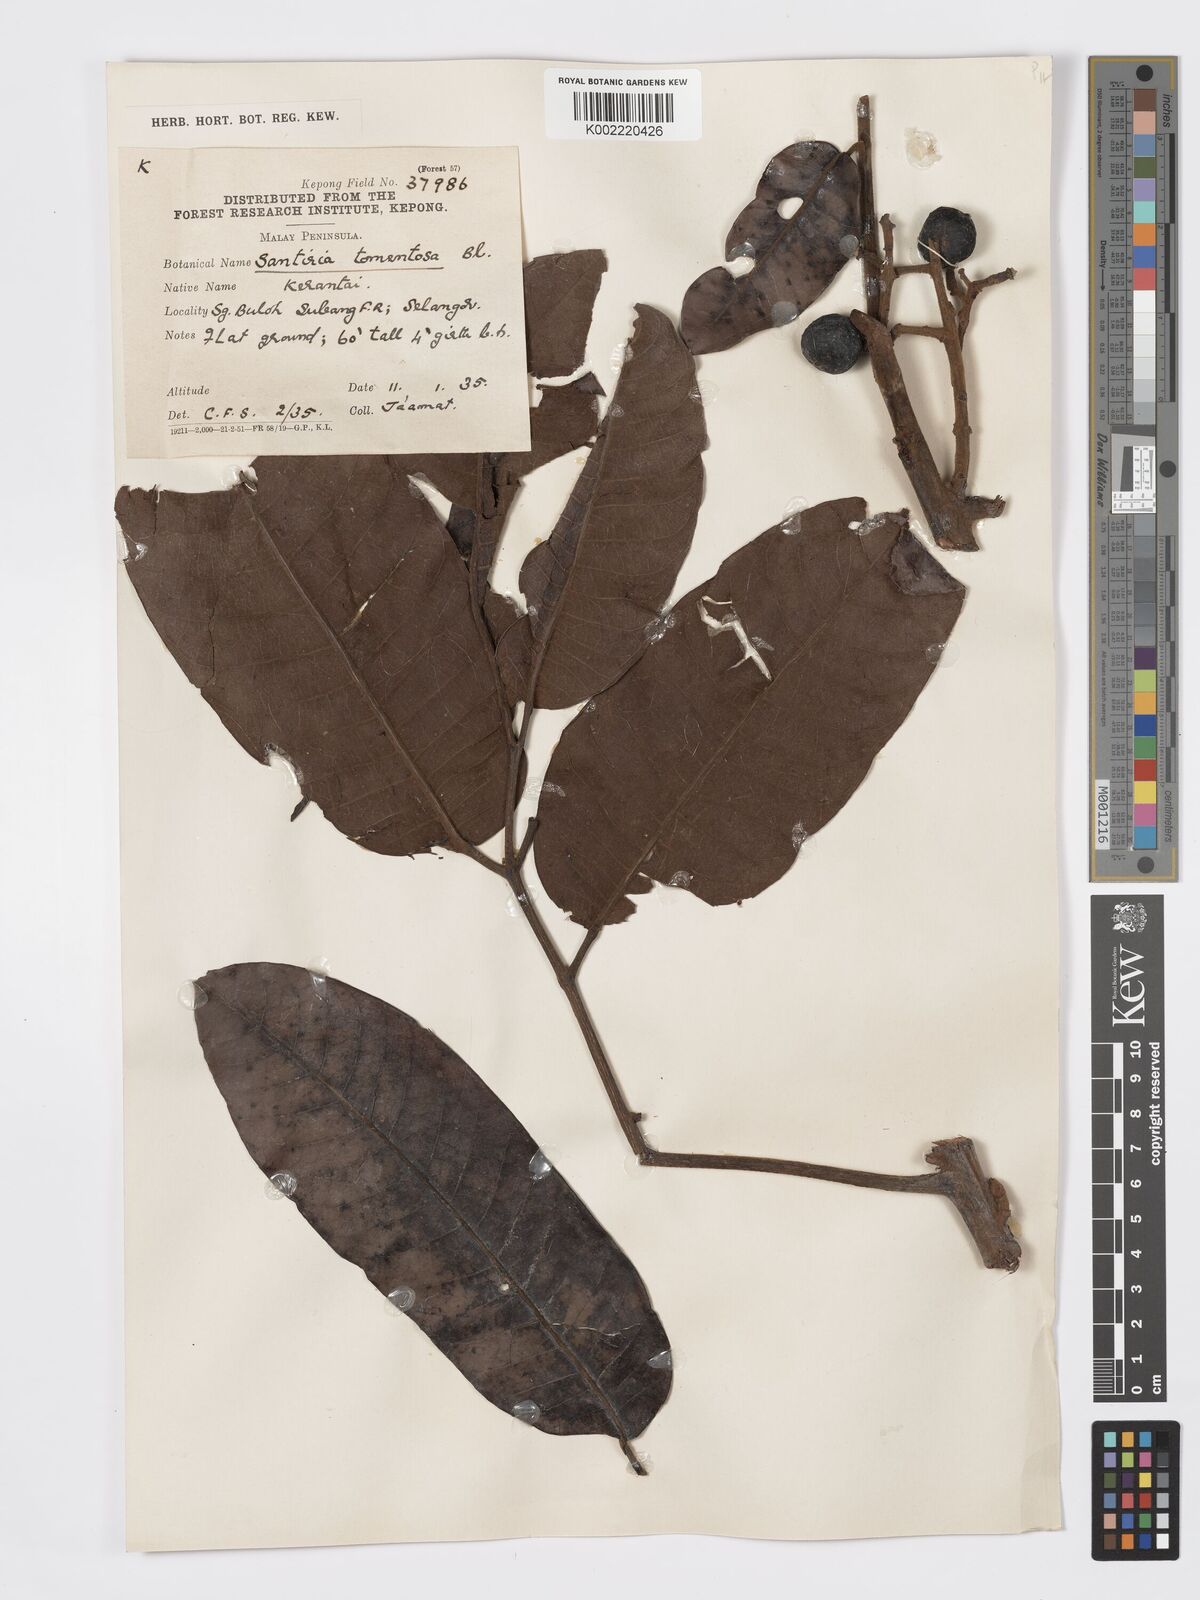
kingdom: Plantae
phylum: Tracheophyta
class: Magnoliopsida
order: Sapindales
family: Burseraceae
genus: Santiria
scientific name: Santiria tomentosa
